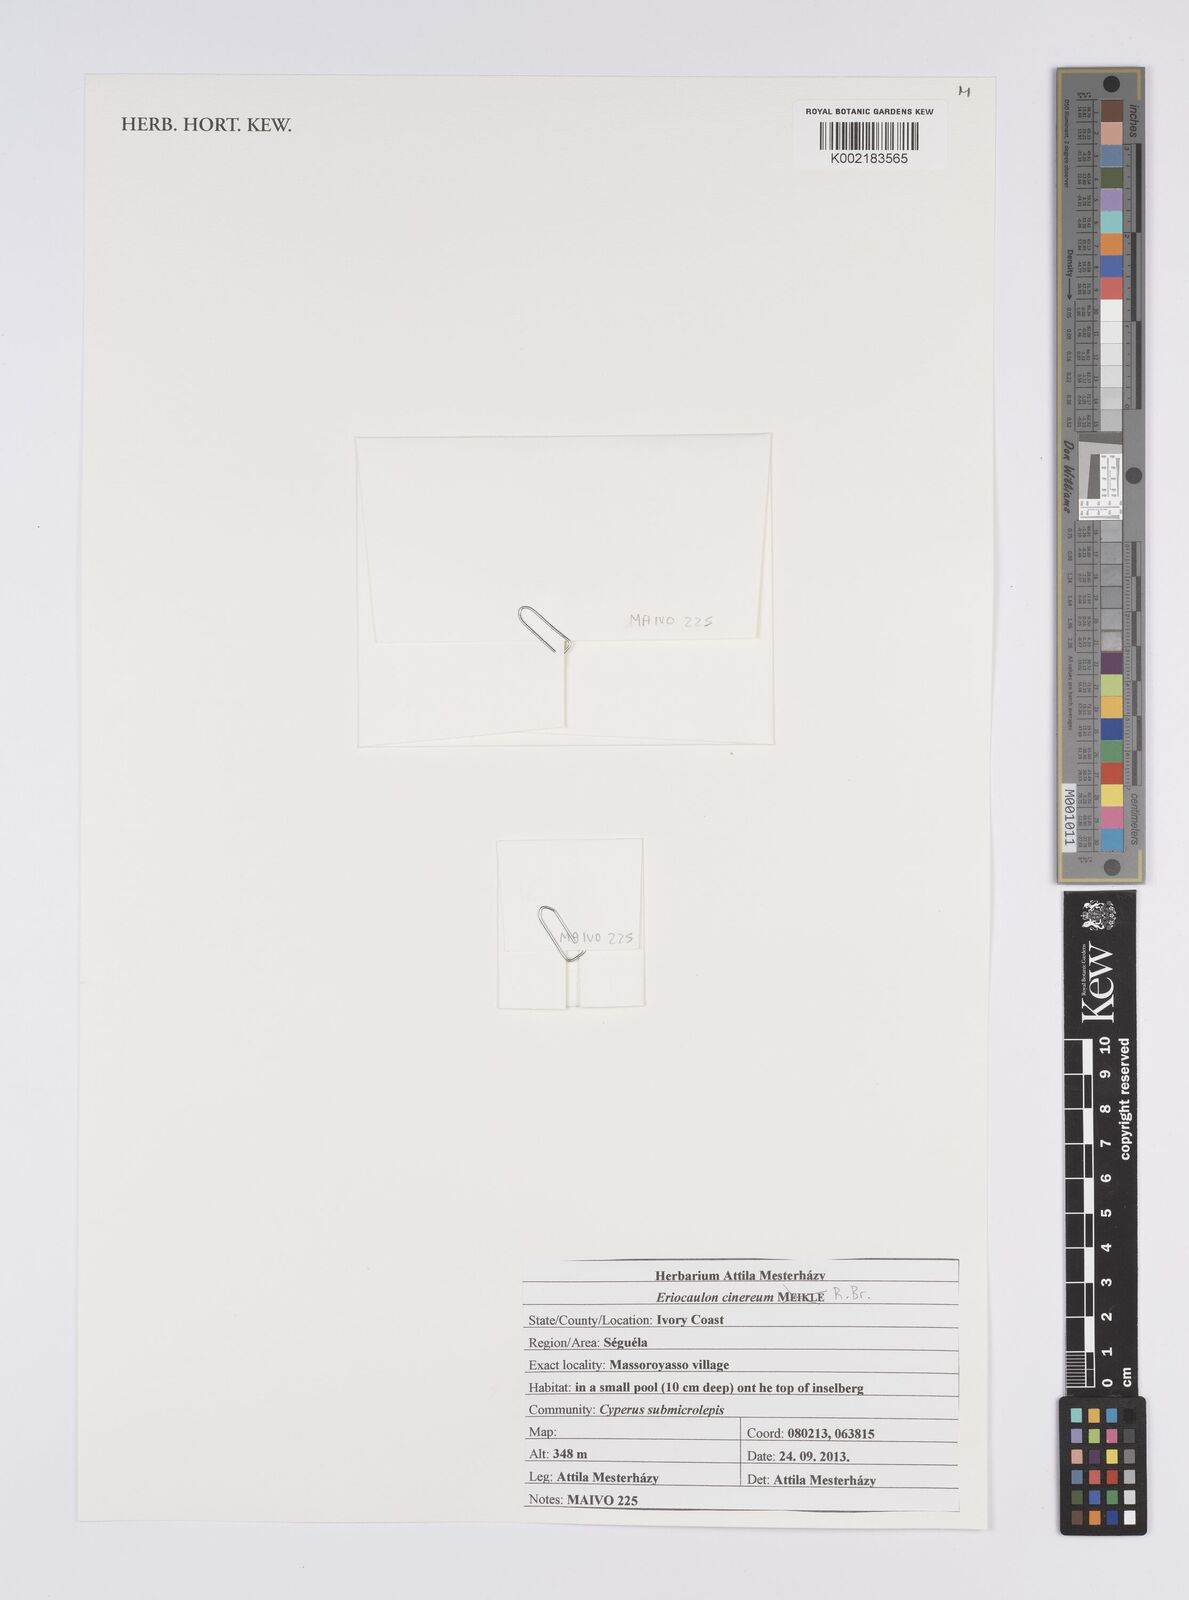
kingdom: Plantae
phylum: Tracheophyta
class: Liliopsida
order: Poales
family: Eriocaulaceae
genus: Eriocaulon
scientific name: Eriocaulon cinereum
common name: Ashy pipewort
